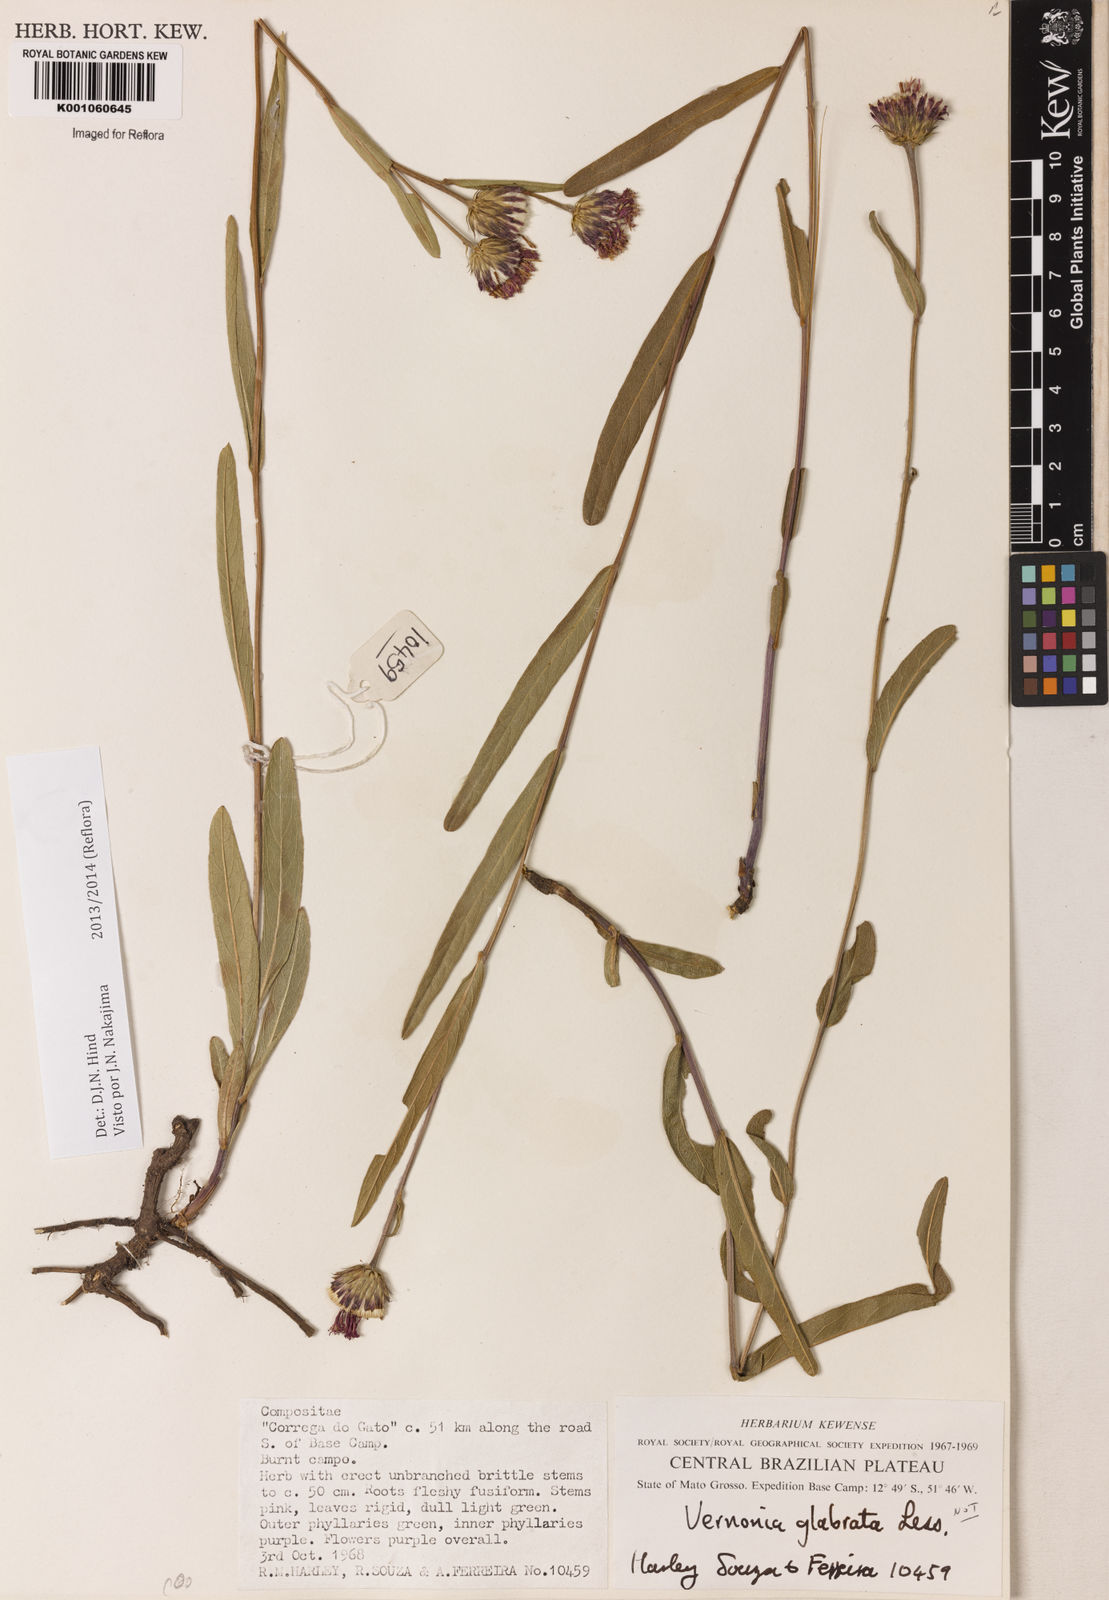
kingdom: Plantae
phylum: Tracheophyta
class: Magnoliopsida
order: Asterales
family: Asteraceae
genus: Lessingianthus
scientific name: Lessingianthus glabratus
